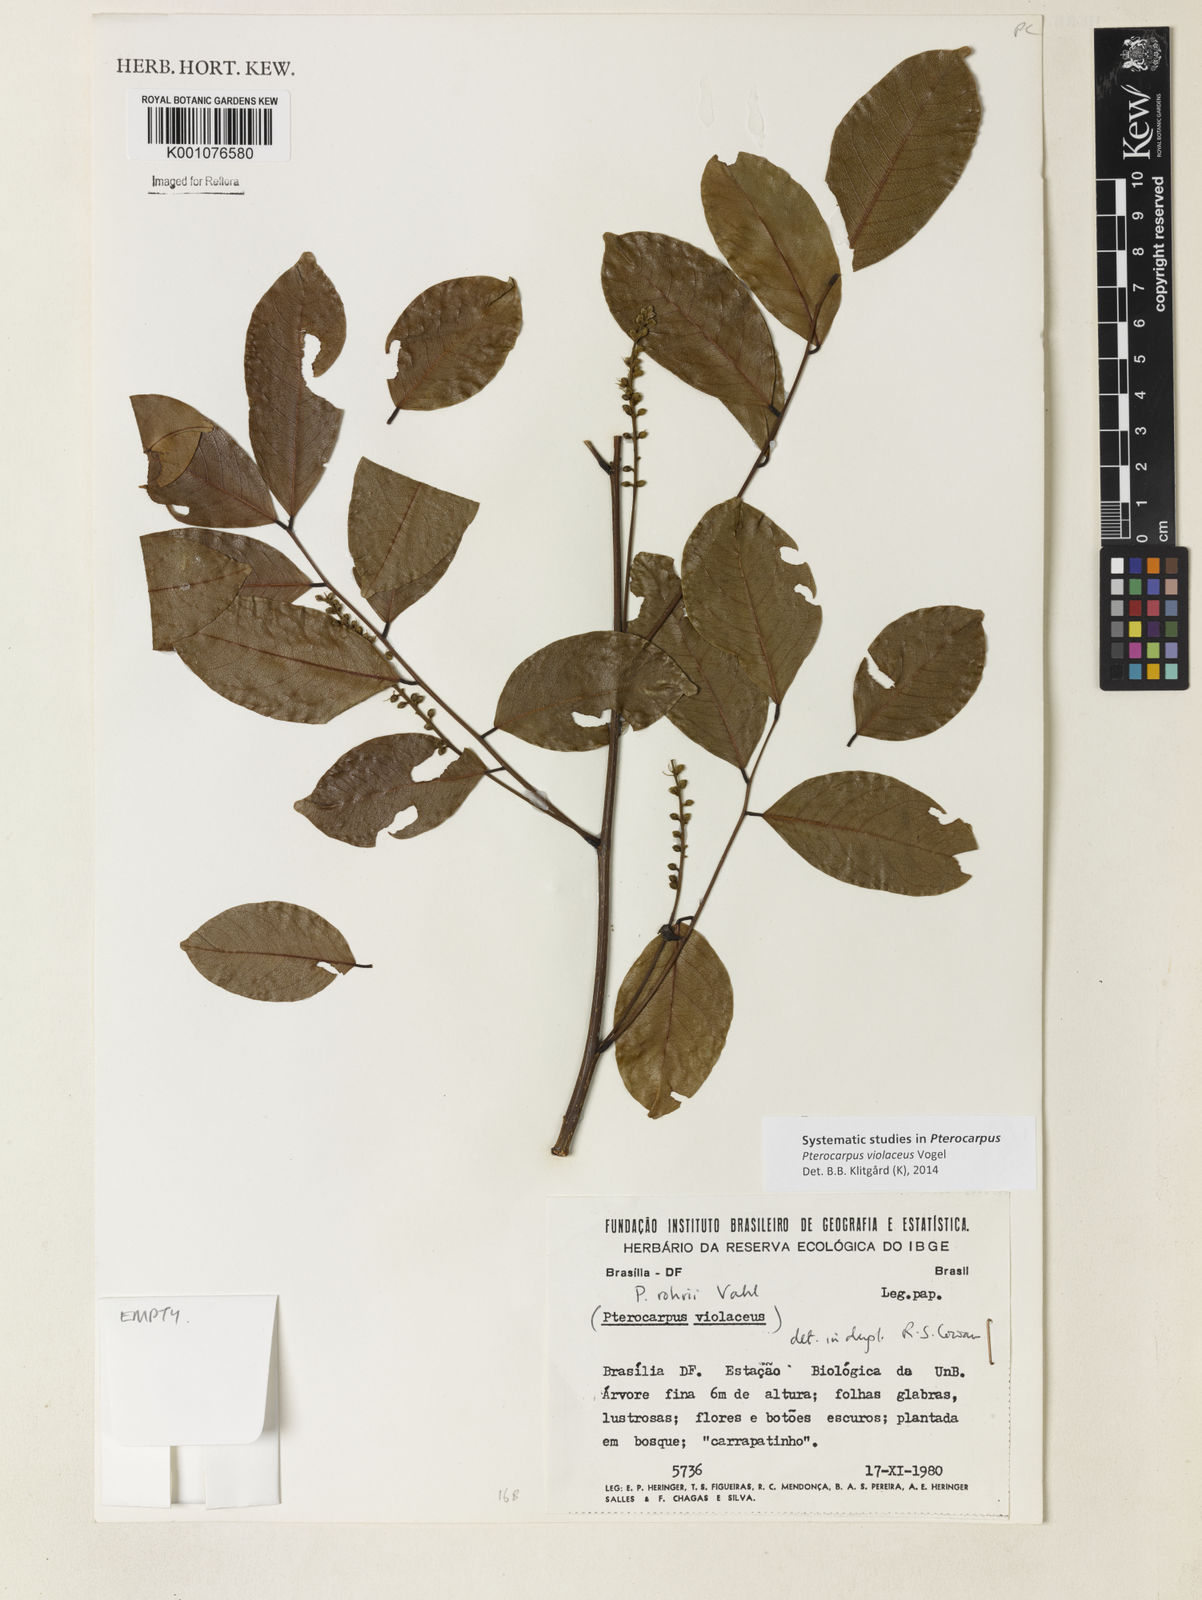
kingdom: Plantae
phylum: Tracheophyta
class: Magnoliopsida
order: Fabales
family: Fabaceae
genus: Pterocarpus
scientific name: Pterocarpus rohrii
